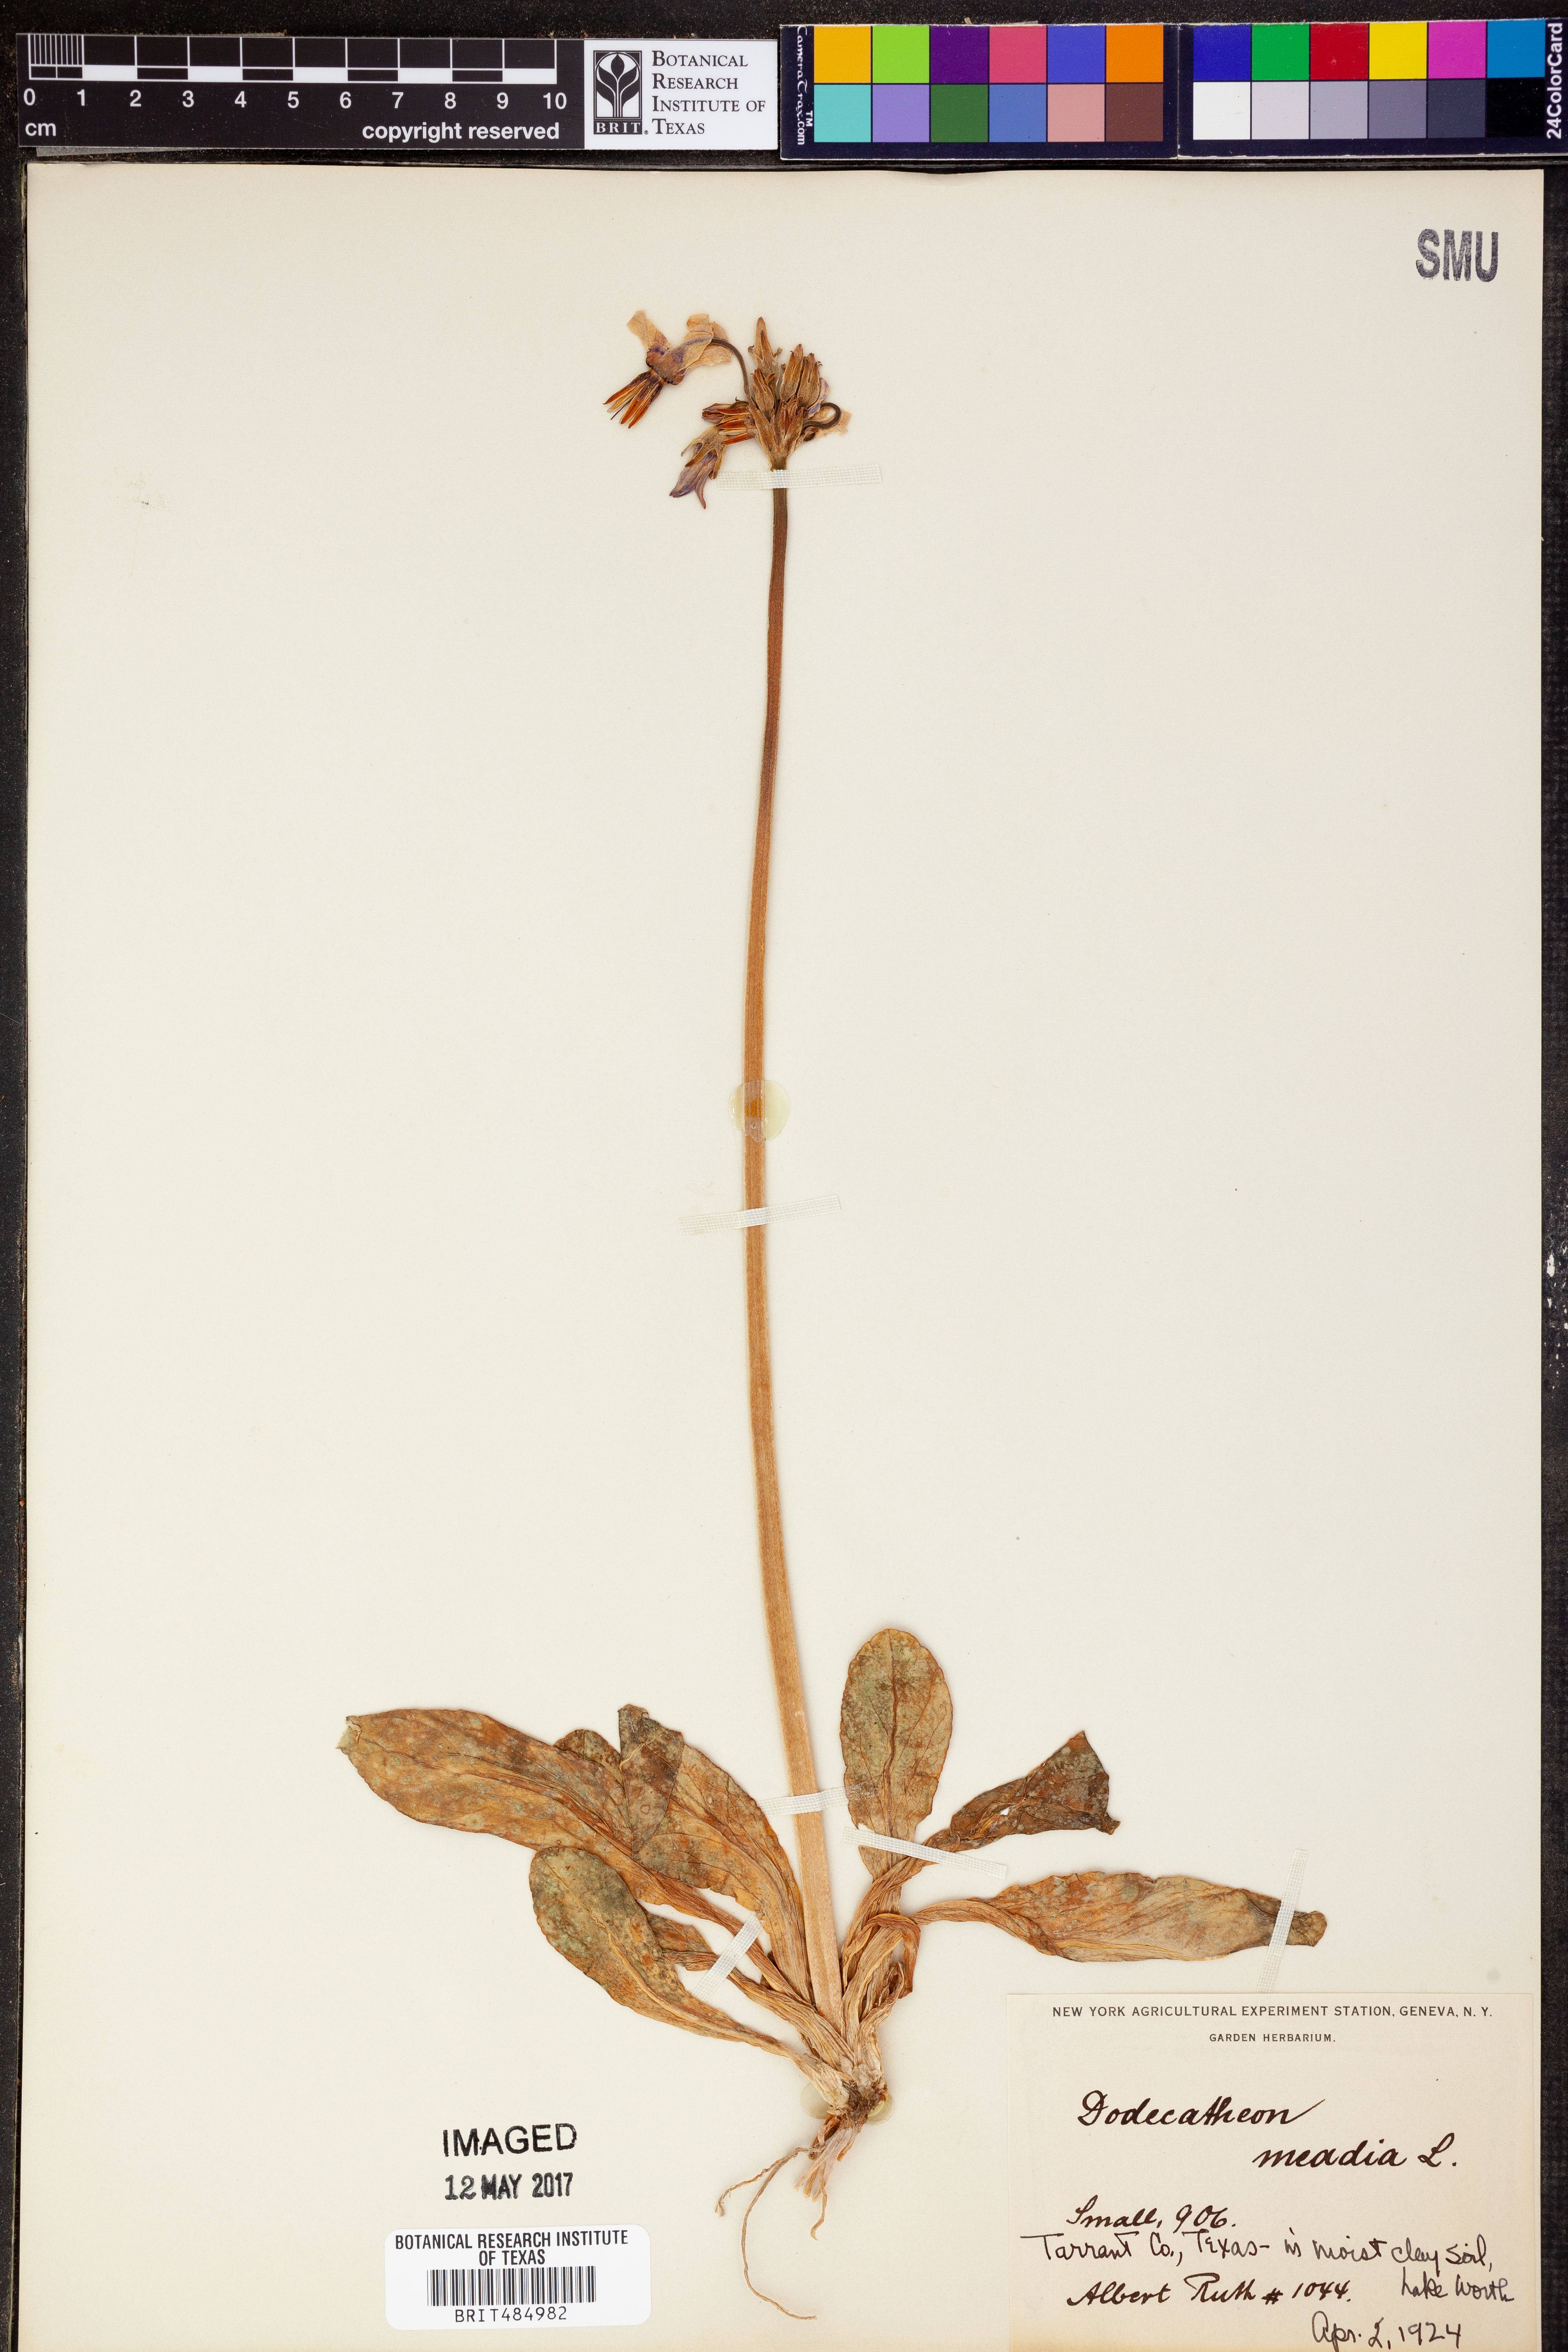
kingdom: Plantae
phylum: Tracheophyta
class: Magnoliopsida
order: Ericales
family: Primulaceae
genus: Dodecatheon
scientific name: Dodecatheon meadia
